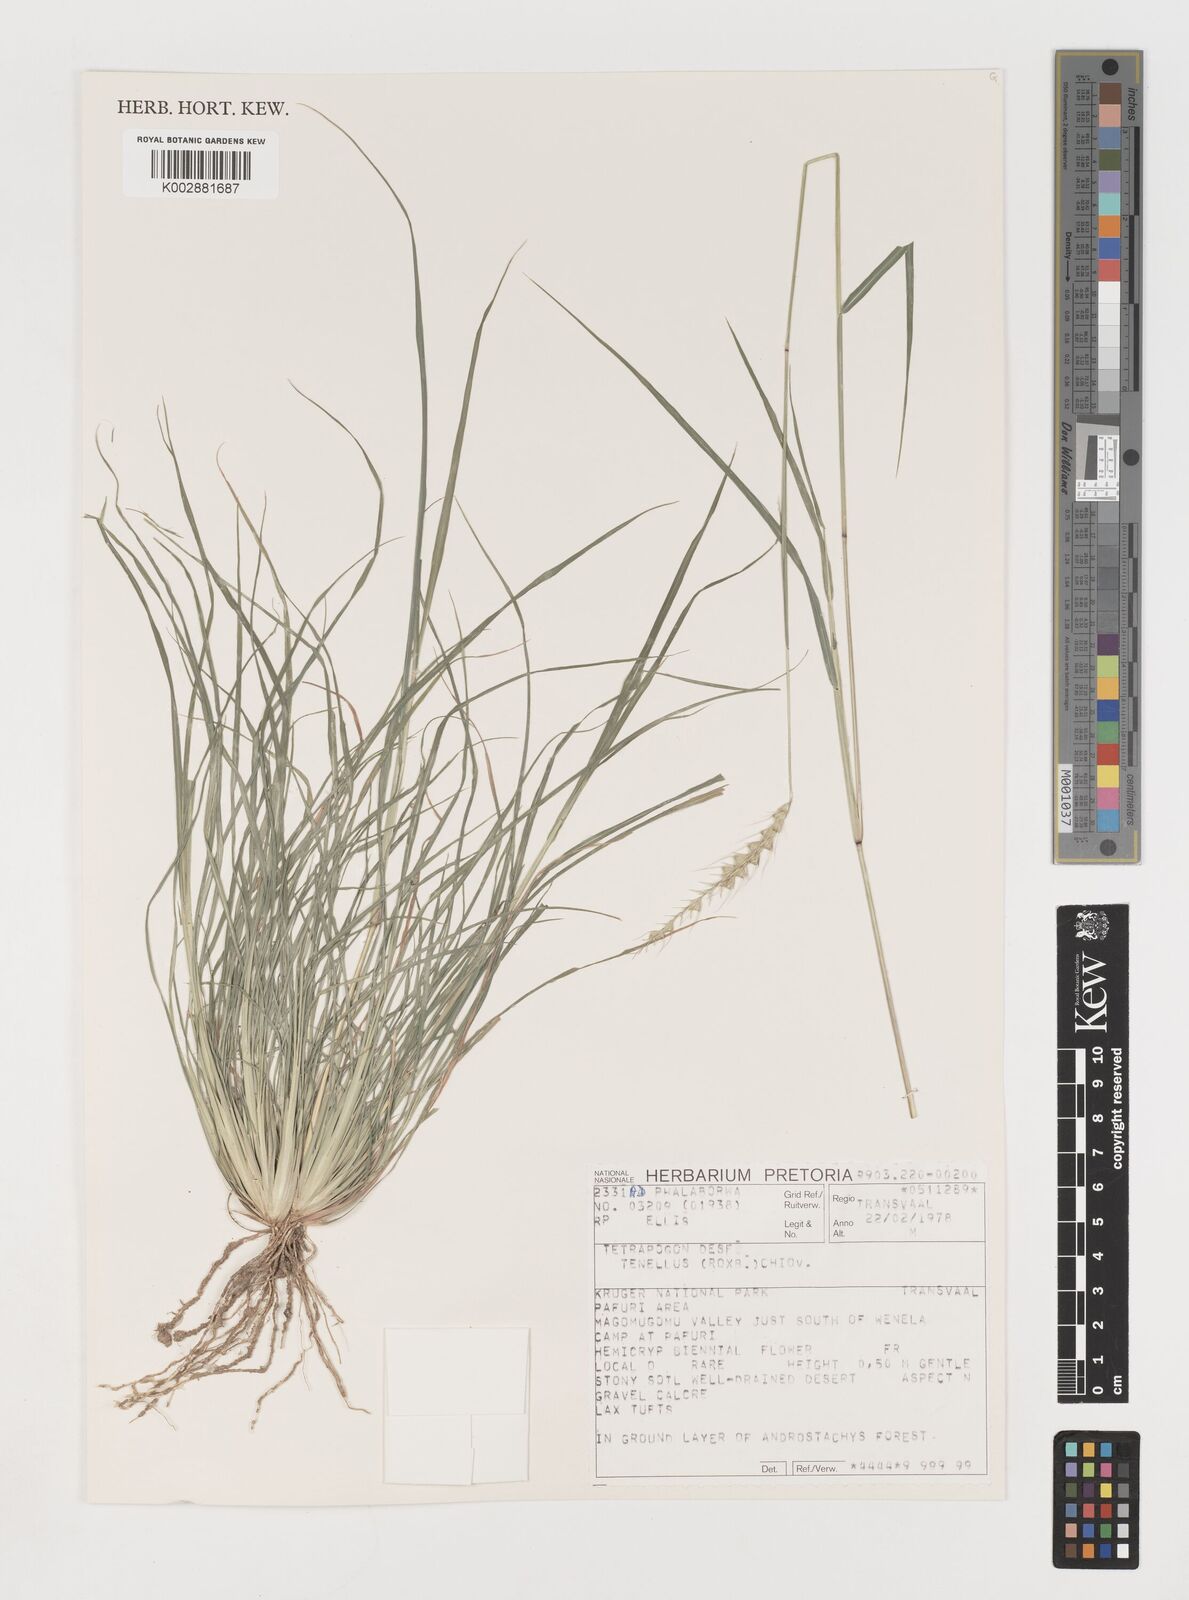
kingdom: Plantae
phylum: Tracheophyta
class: Liliopsida
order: Poales
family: Poaceae
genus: Tetrapogon
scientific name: Tetrapogon tenellus
